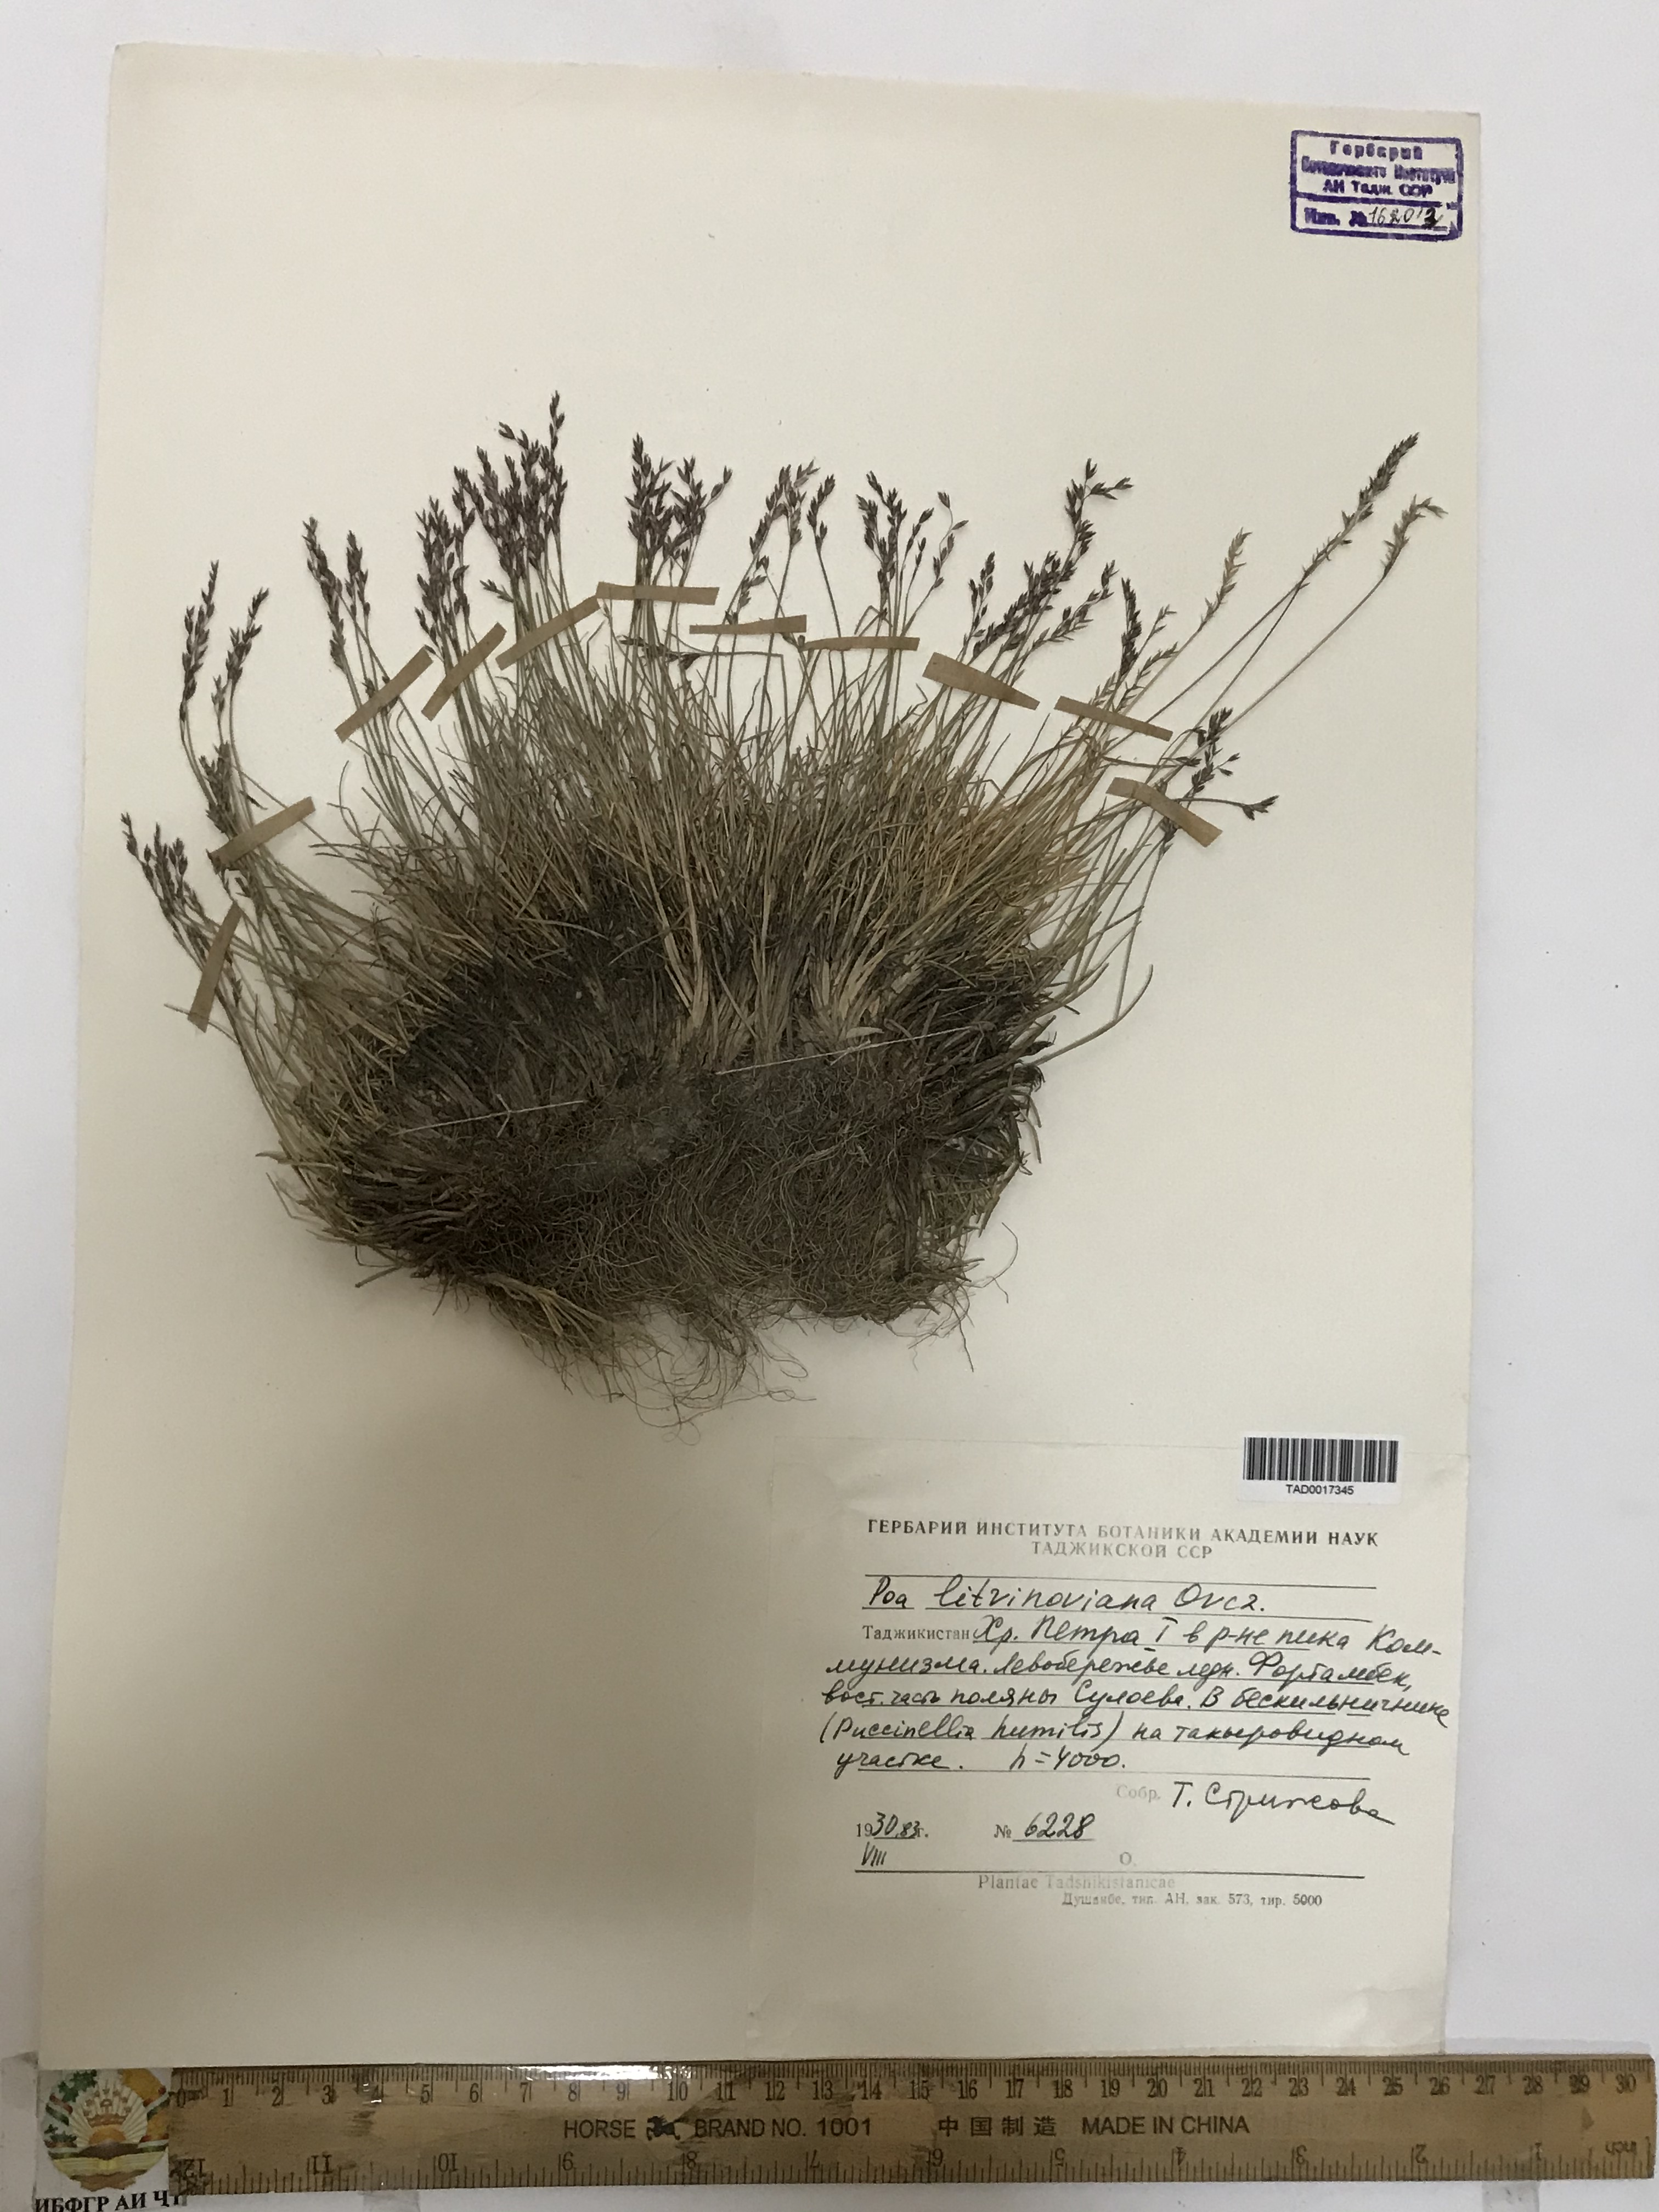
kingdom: Plantae
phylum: Tracheophyta
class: Liliopsida
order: Poales
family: Poaceae
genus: Poa
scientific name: Poa glauca
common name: Glaucous bluegrass
